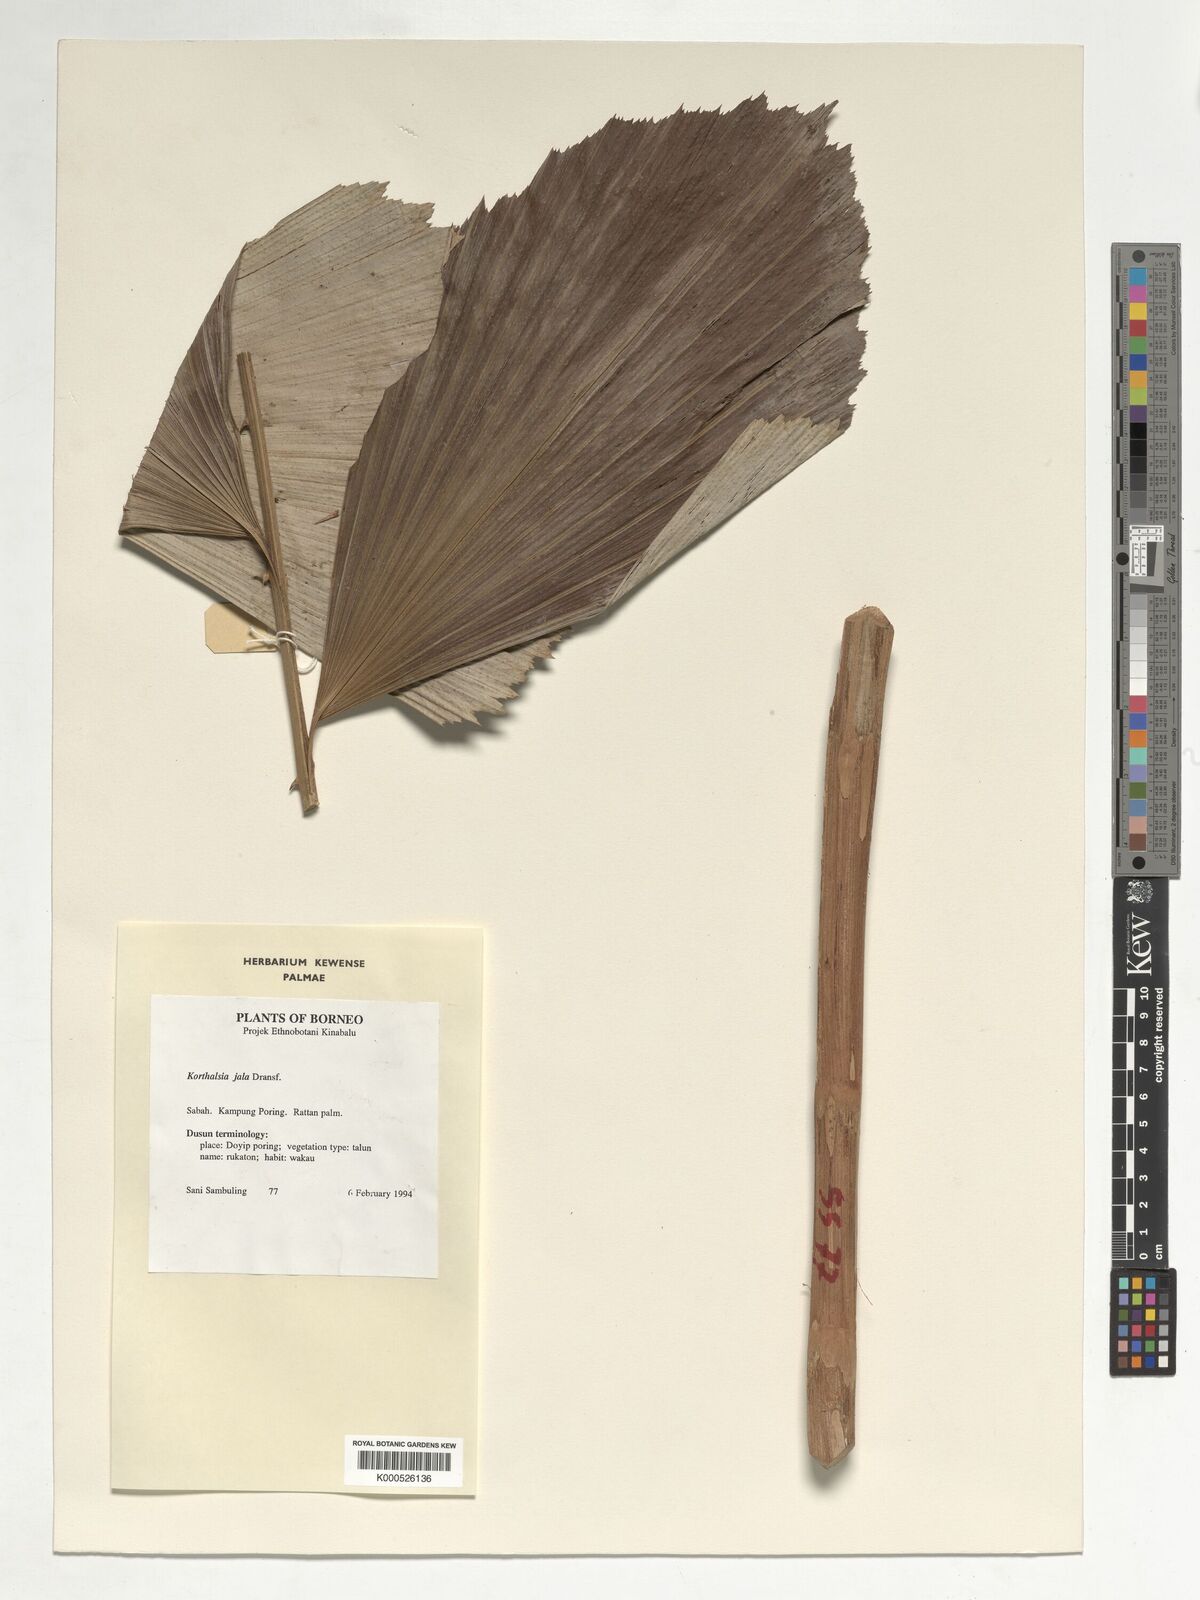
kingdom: Plantae
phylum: Tracheophyta
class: Liliopsida
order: Arecales
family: Arecaceae
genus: Korthalsia
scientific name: Korthalsia jala
